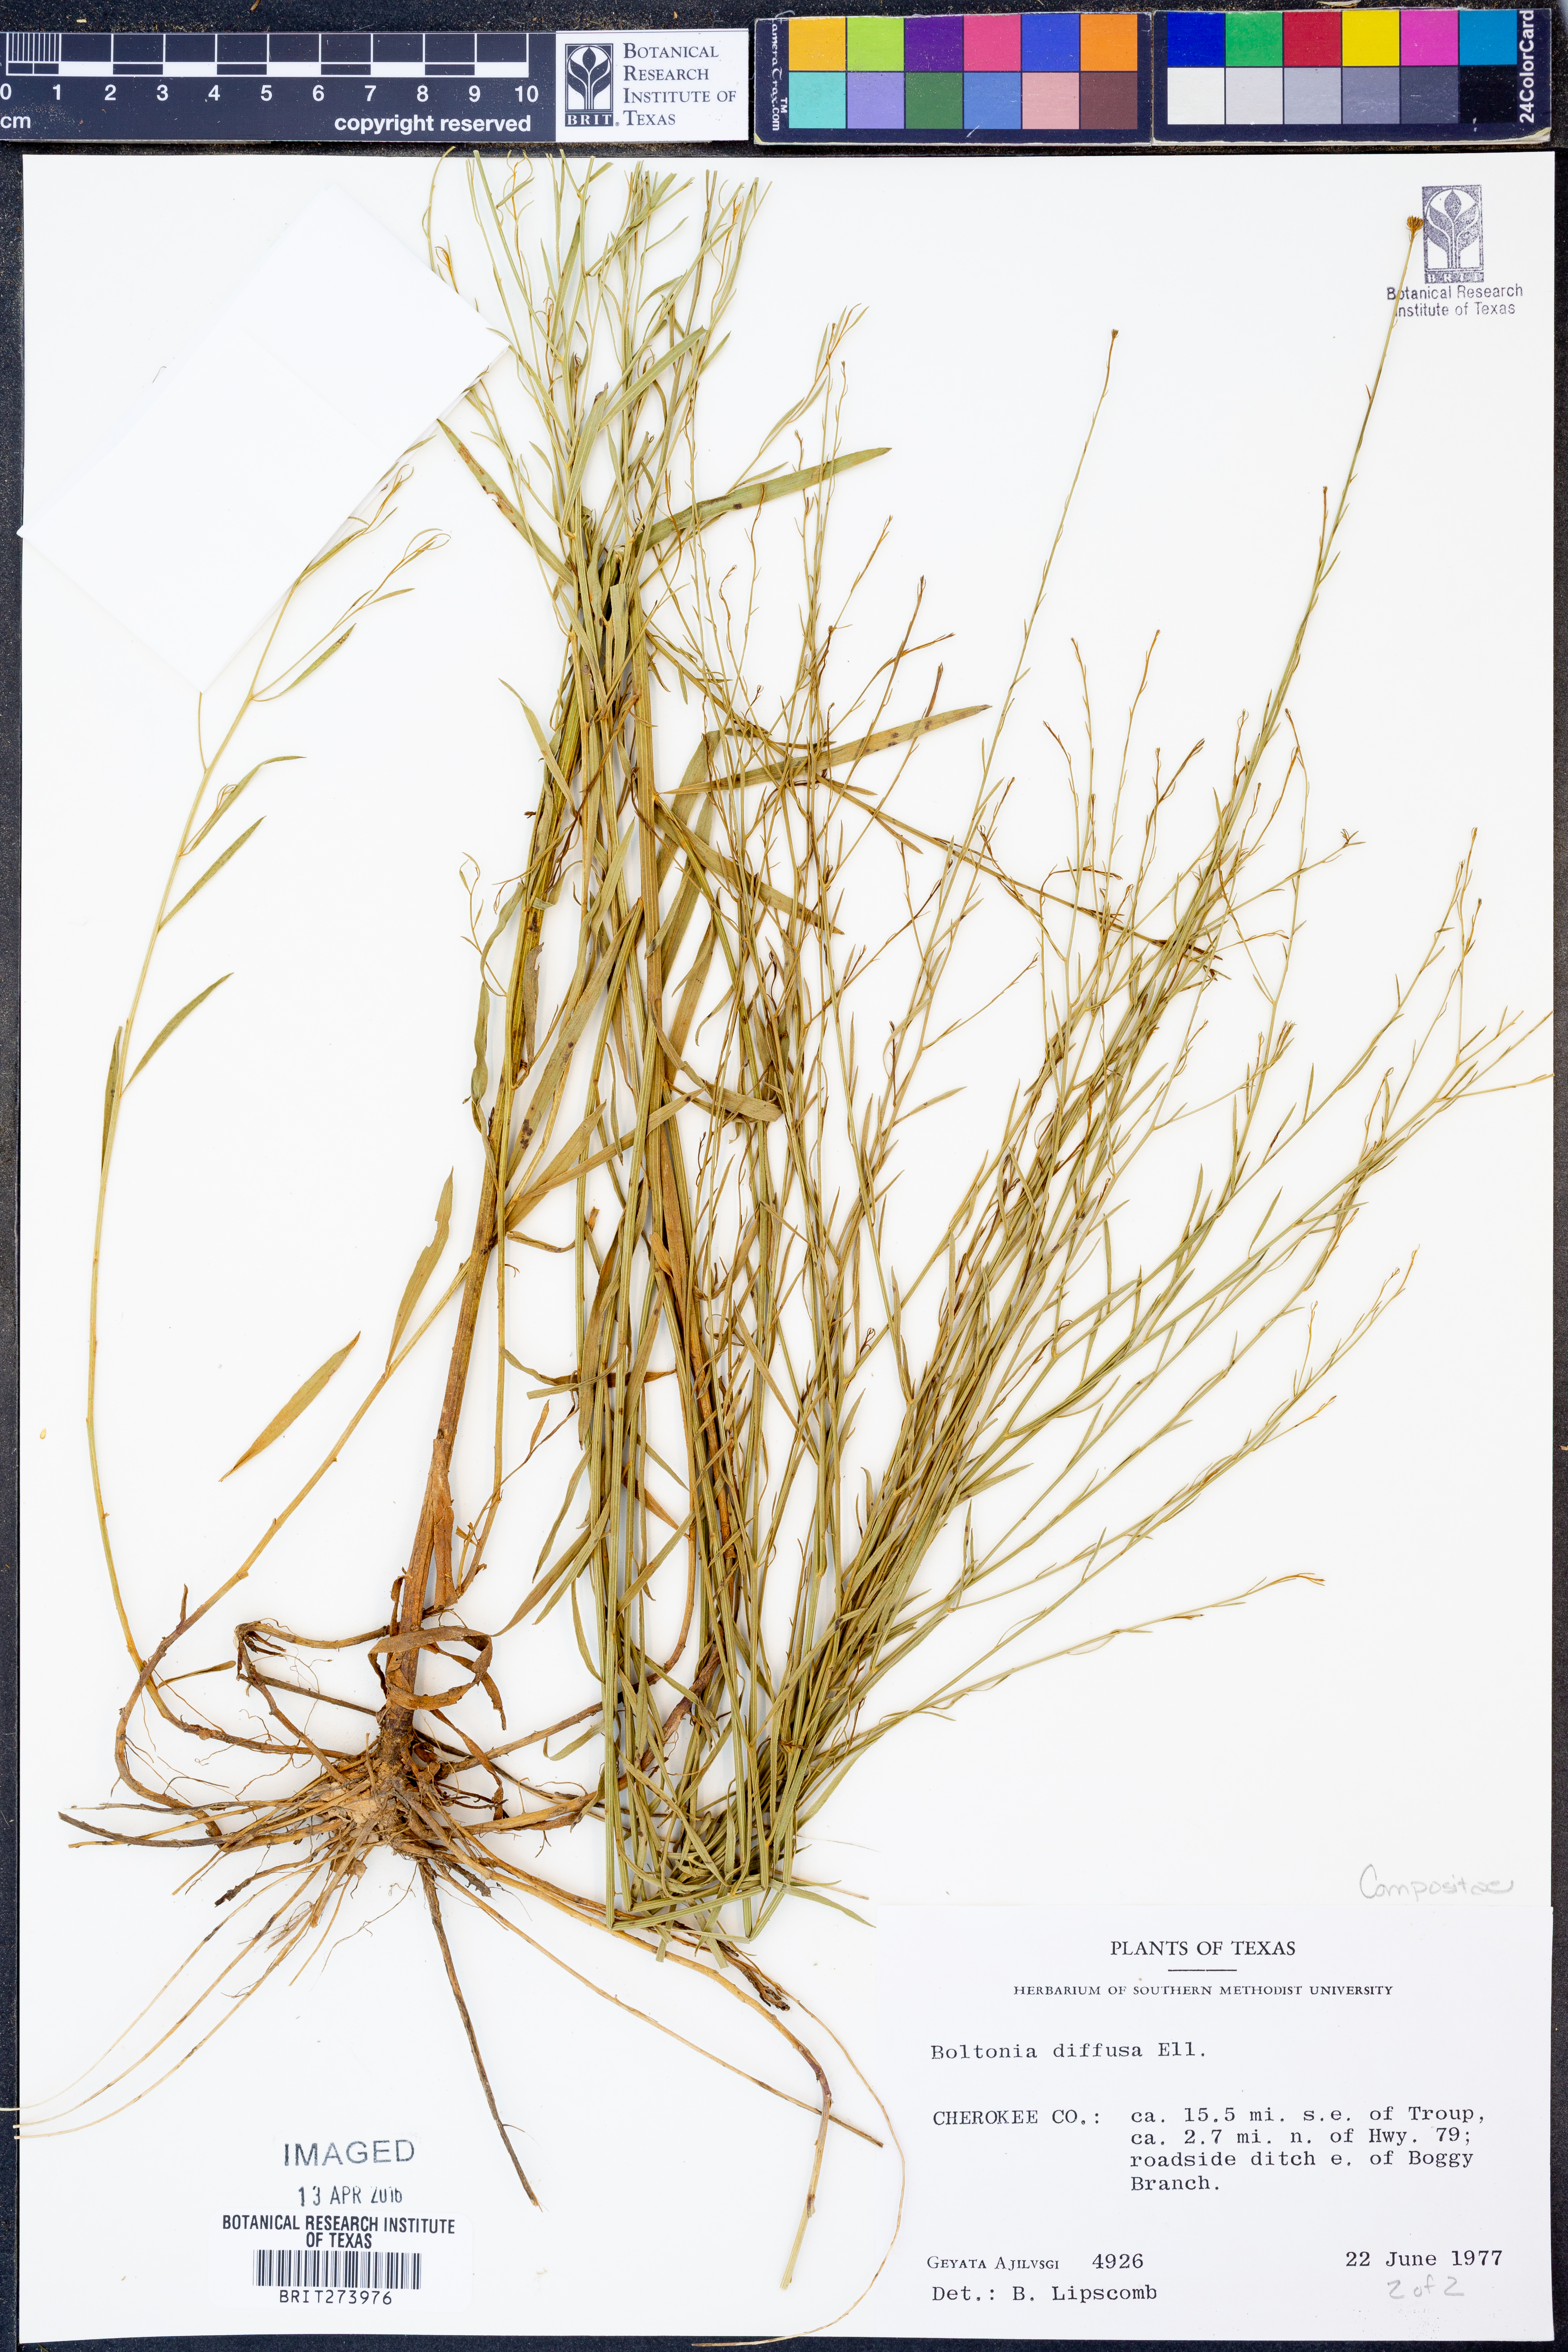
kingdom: Plantae
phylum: Tracheophyta
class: Magnoliopsida
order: Asterales
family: Asteraceae
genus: Boltonia
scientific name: Boltonia diffusa
